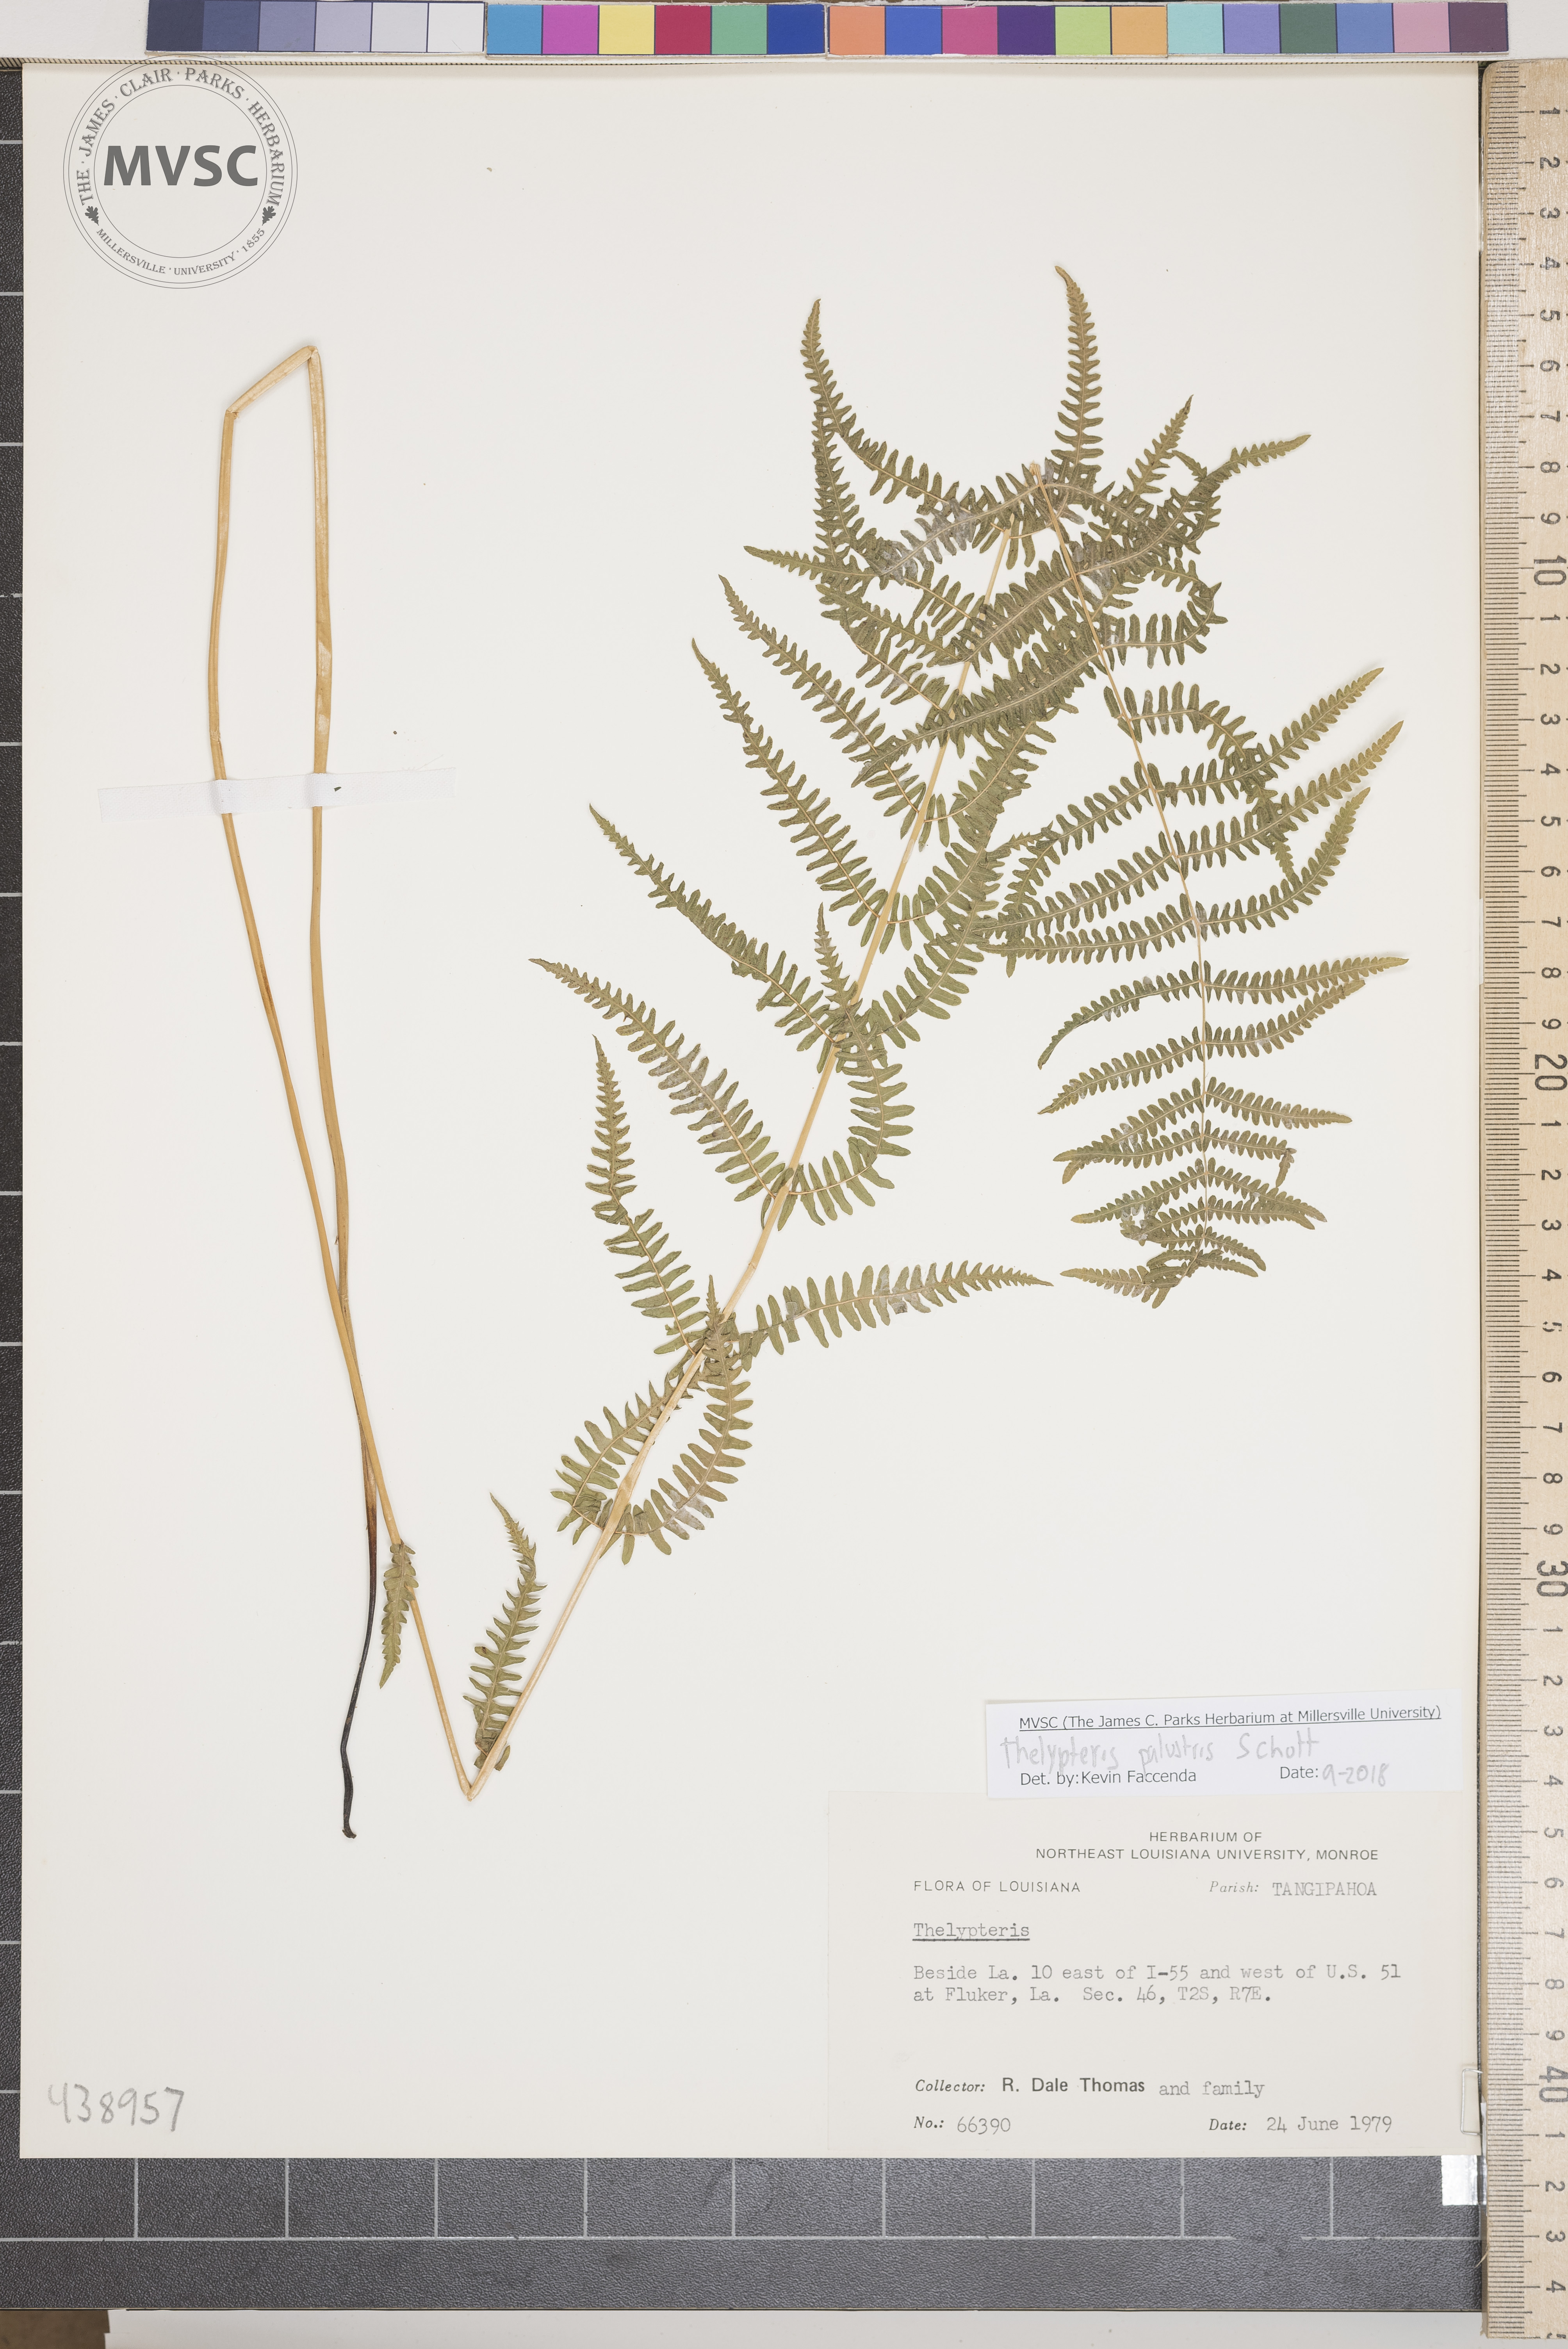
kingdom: Plantae
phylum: Tracheophyta
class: Polypodiopsida
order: Polypodiales
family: Thelypteridaceae
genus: Thelypteris
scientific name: Thelypteris palustris
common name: Marsh fern
